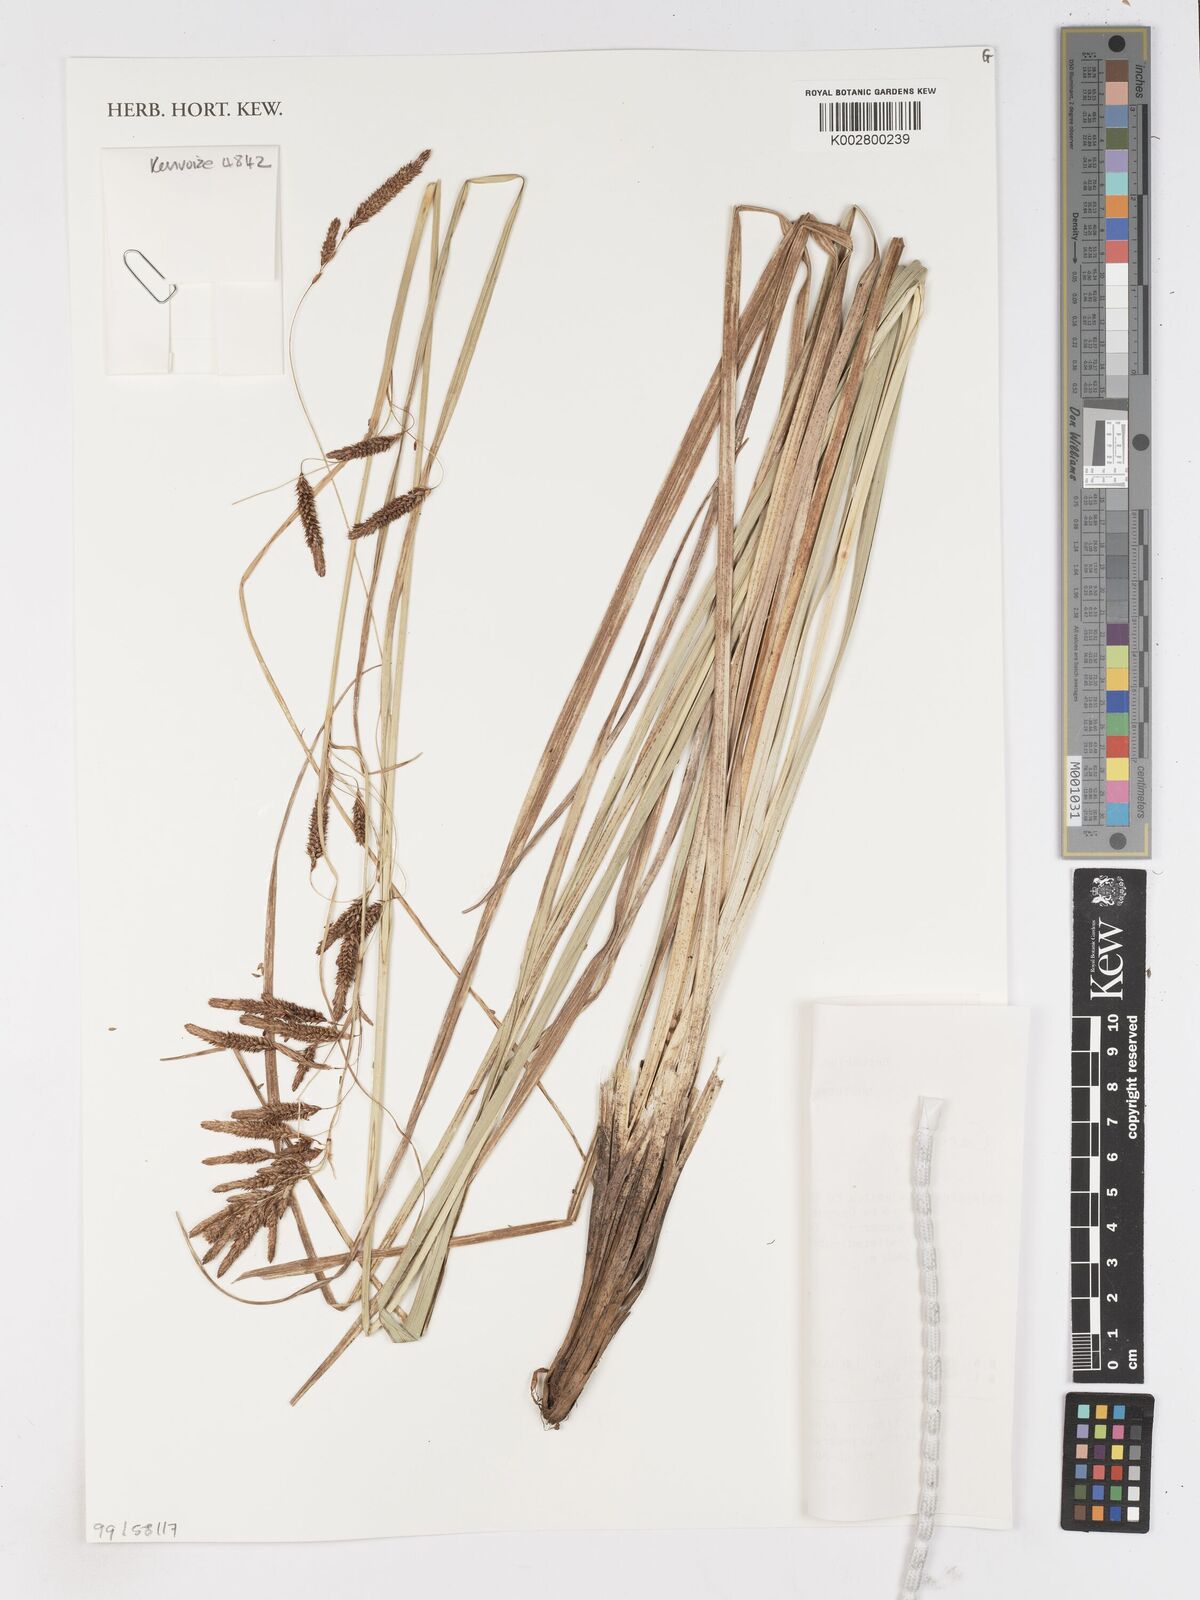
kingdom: Plantae
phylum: Tracheophyta
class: Liliopsida
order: Poales
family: Cyperaceae
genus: Carex
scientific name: Carex
